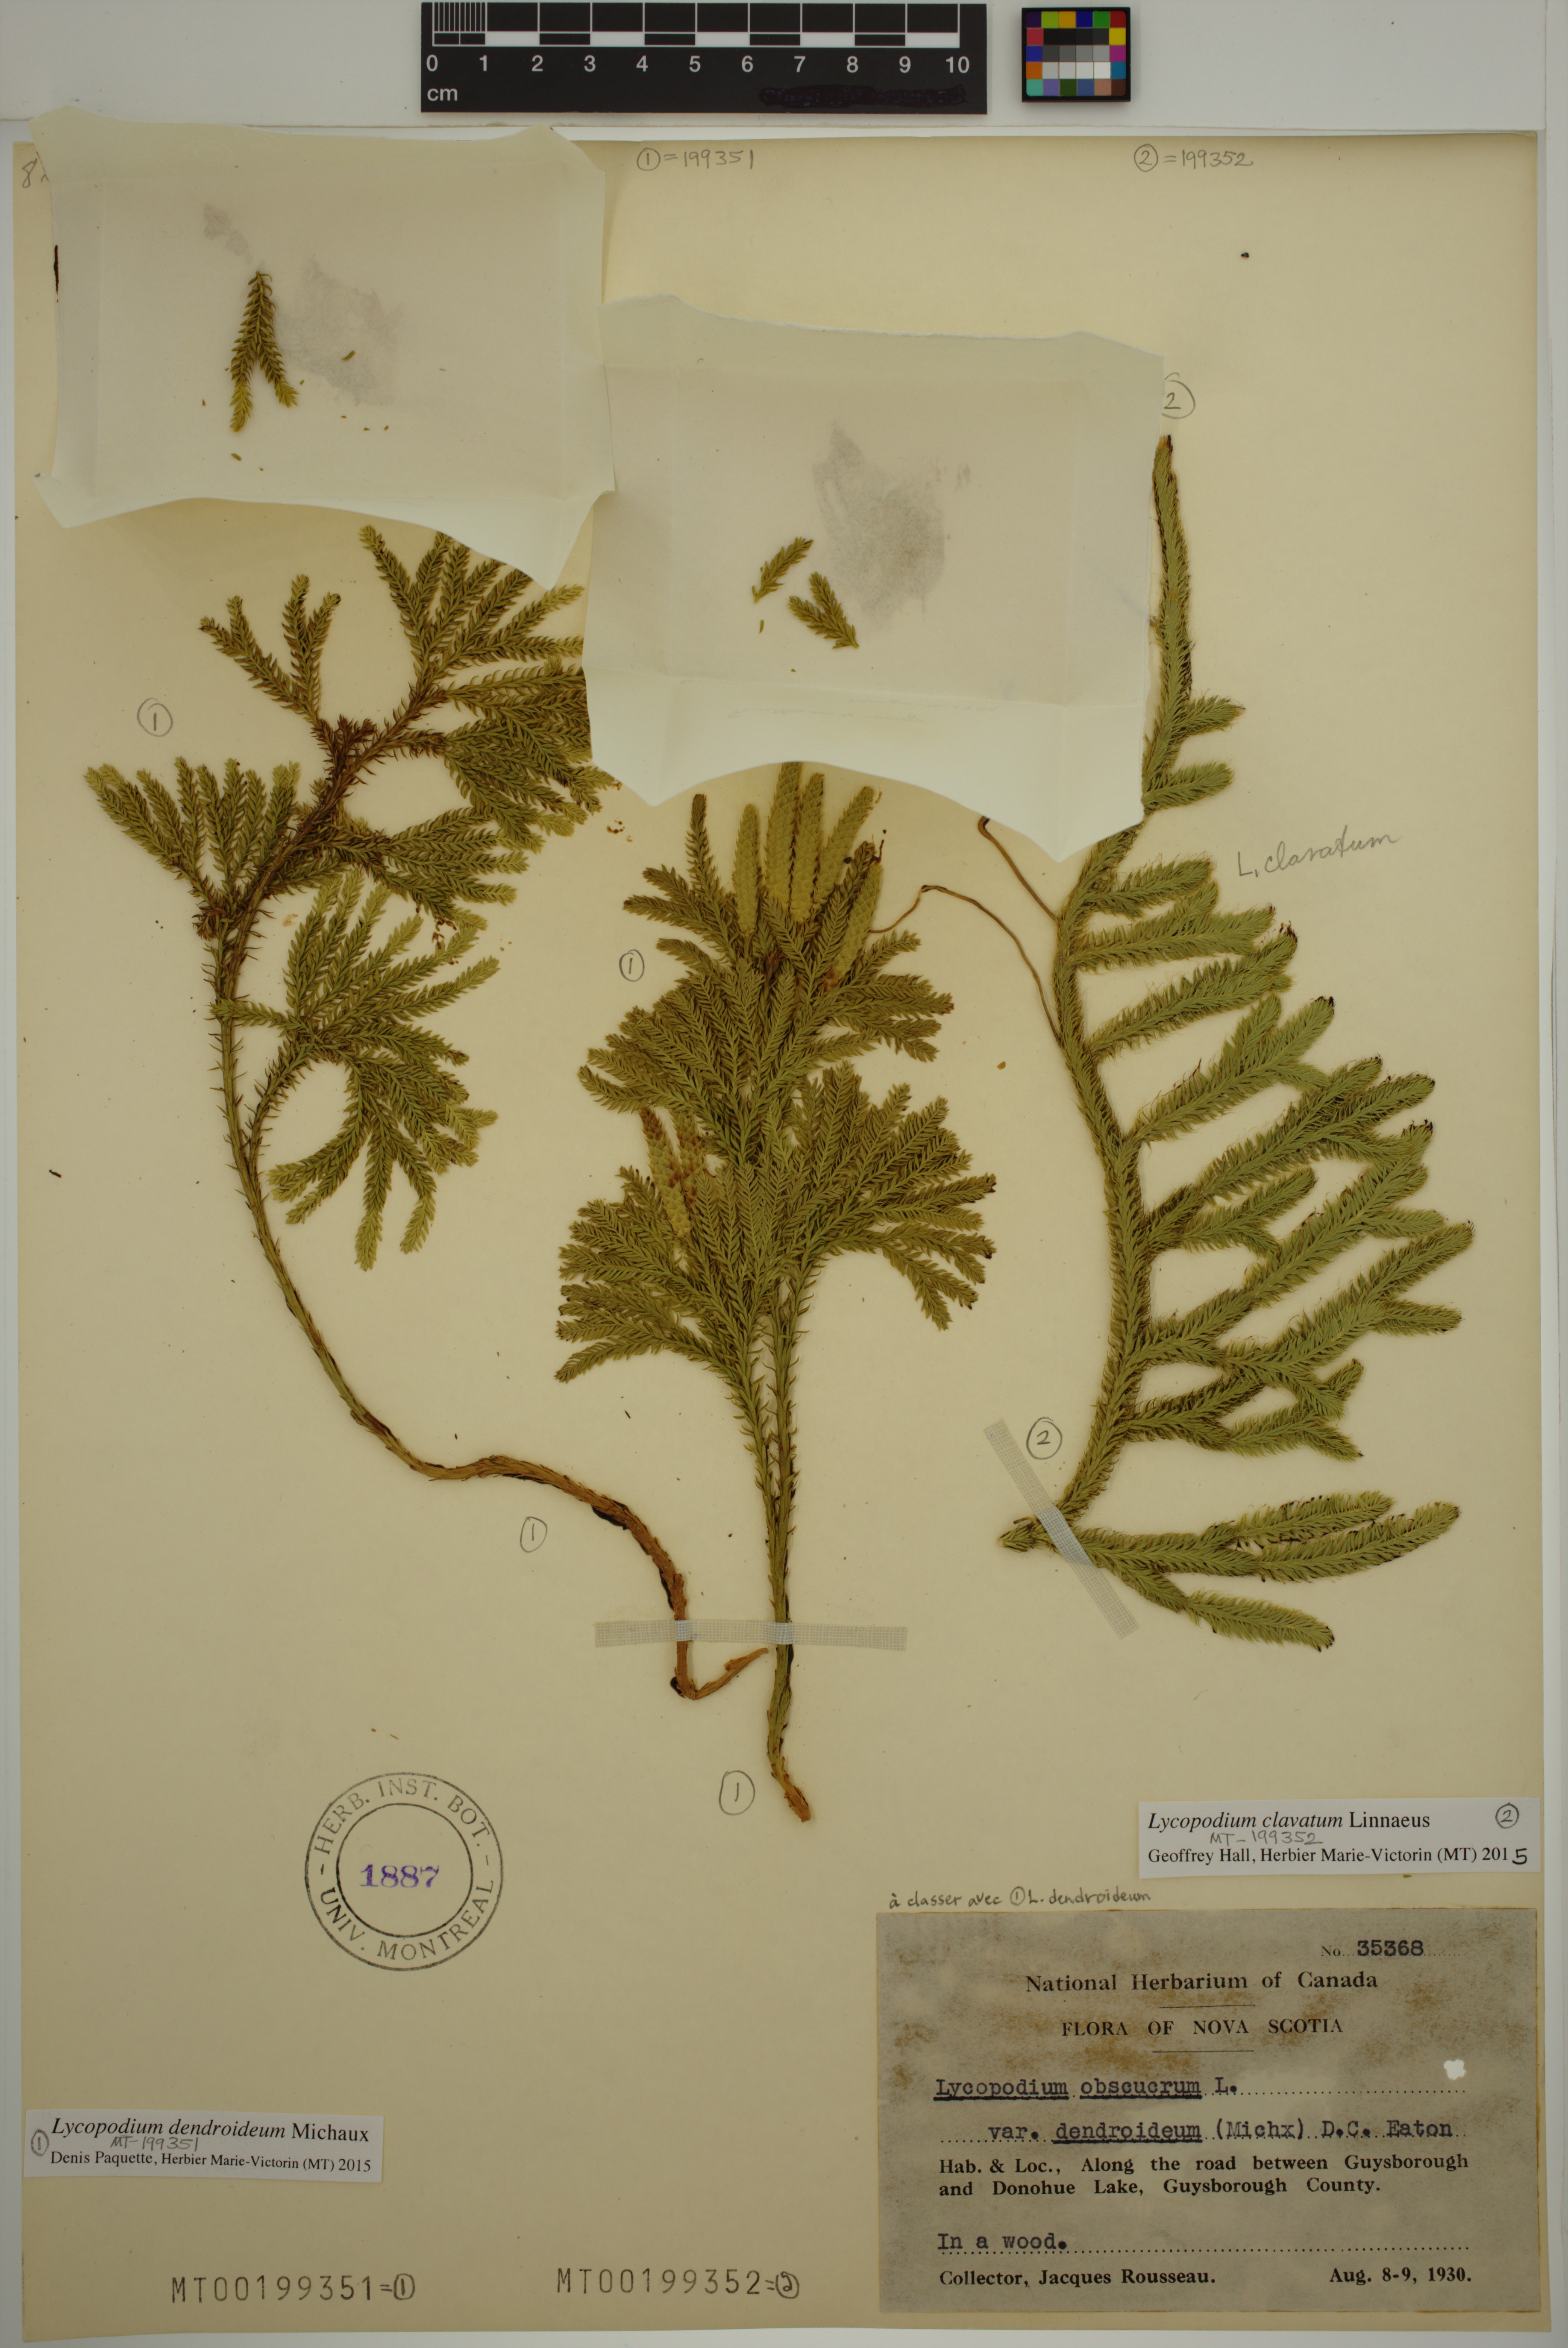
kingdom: Plantae
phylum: Tracheophyta
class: Lycopodiopsida
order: Lycopodiales
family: Lycopodiaceae
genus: Dendrolycopodium
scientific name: Dendrolycopodium dendroideum
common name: Northern tree-clubmoss
